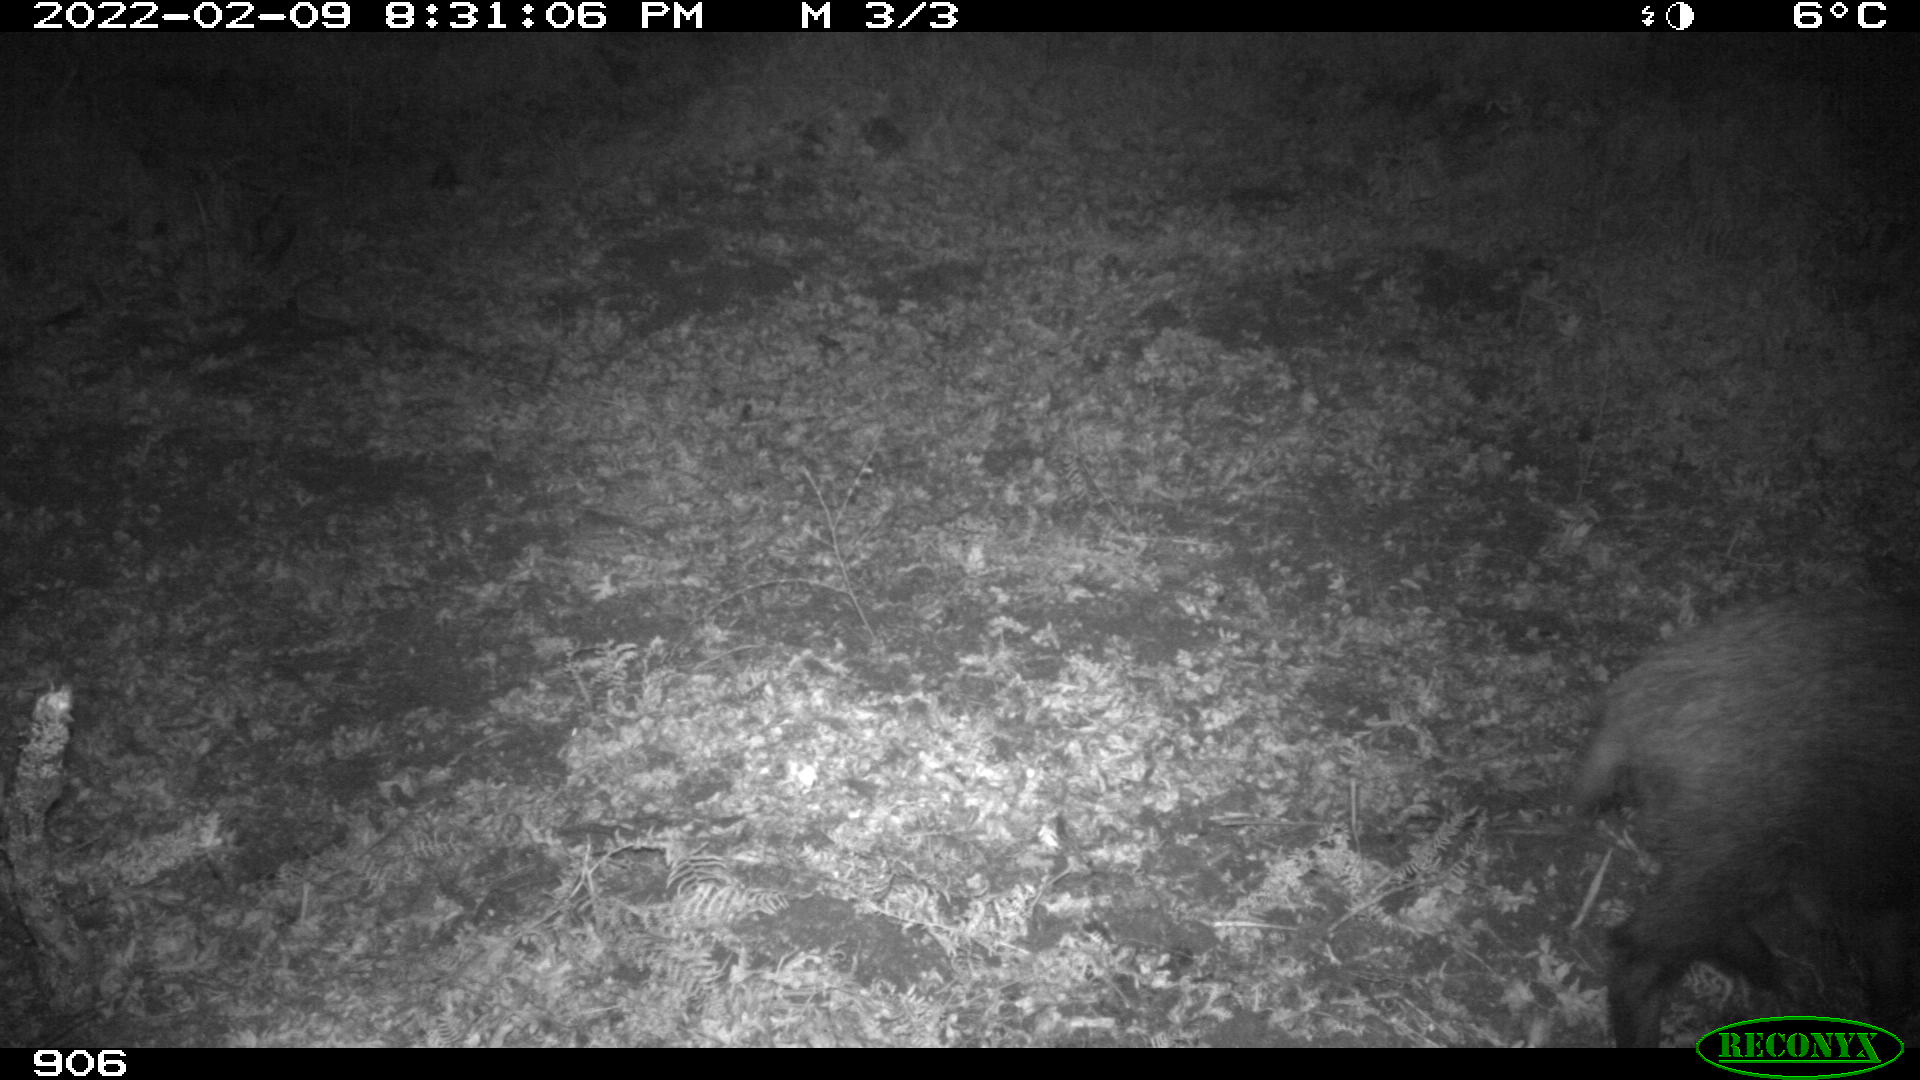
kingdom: Animalia
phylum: Chordata
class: Mammalia
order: Artiodactyla
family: Suidae
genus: Sus
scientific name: Sus scrofa
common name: Wild boar
